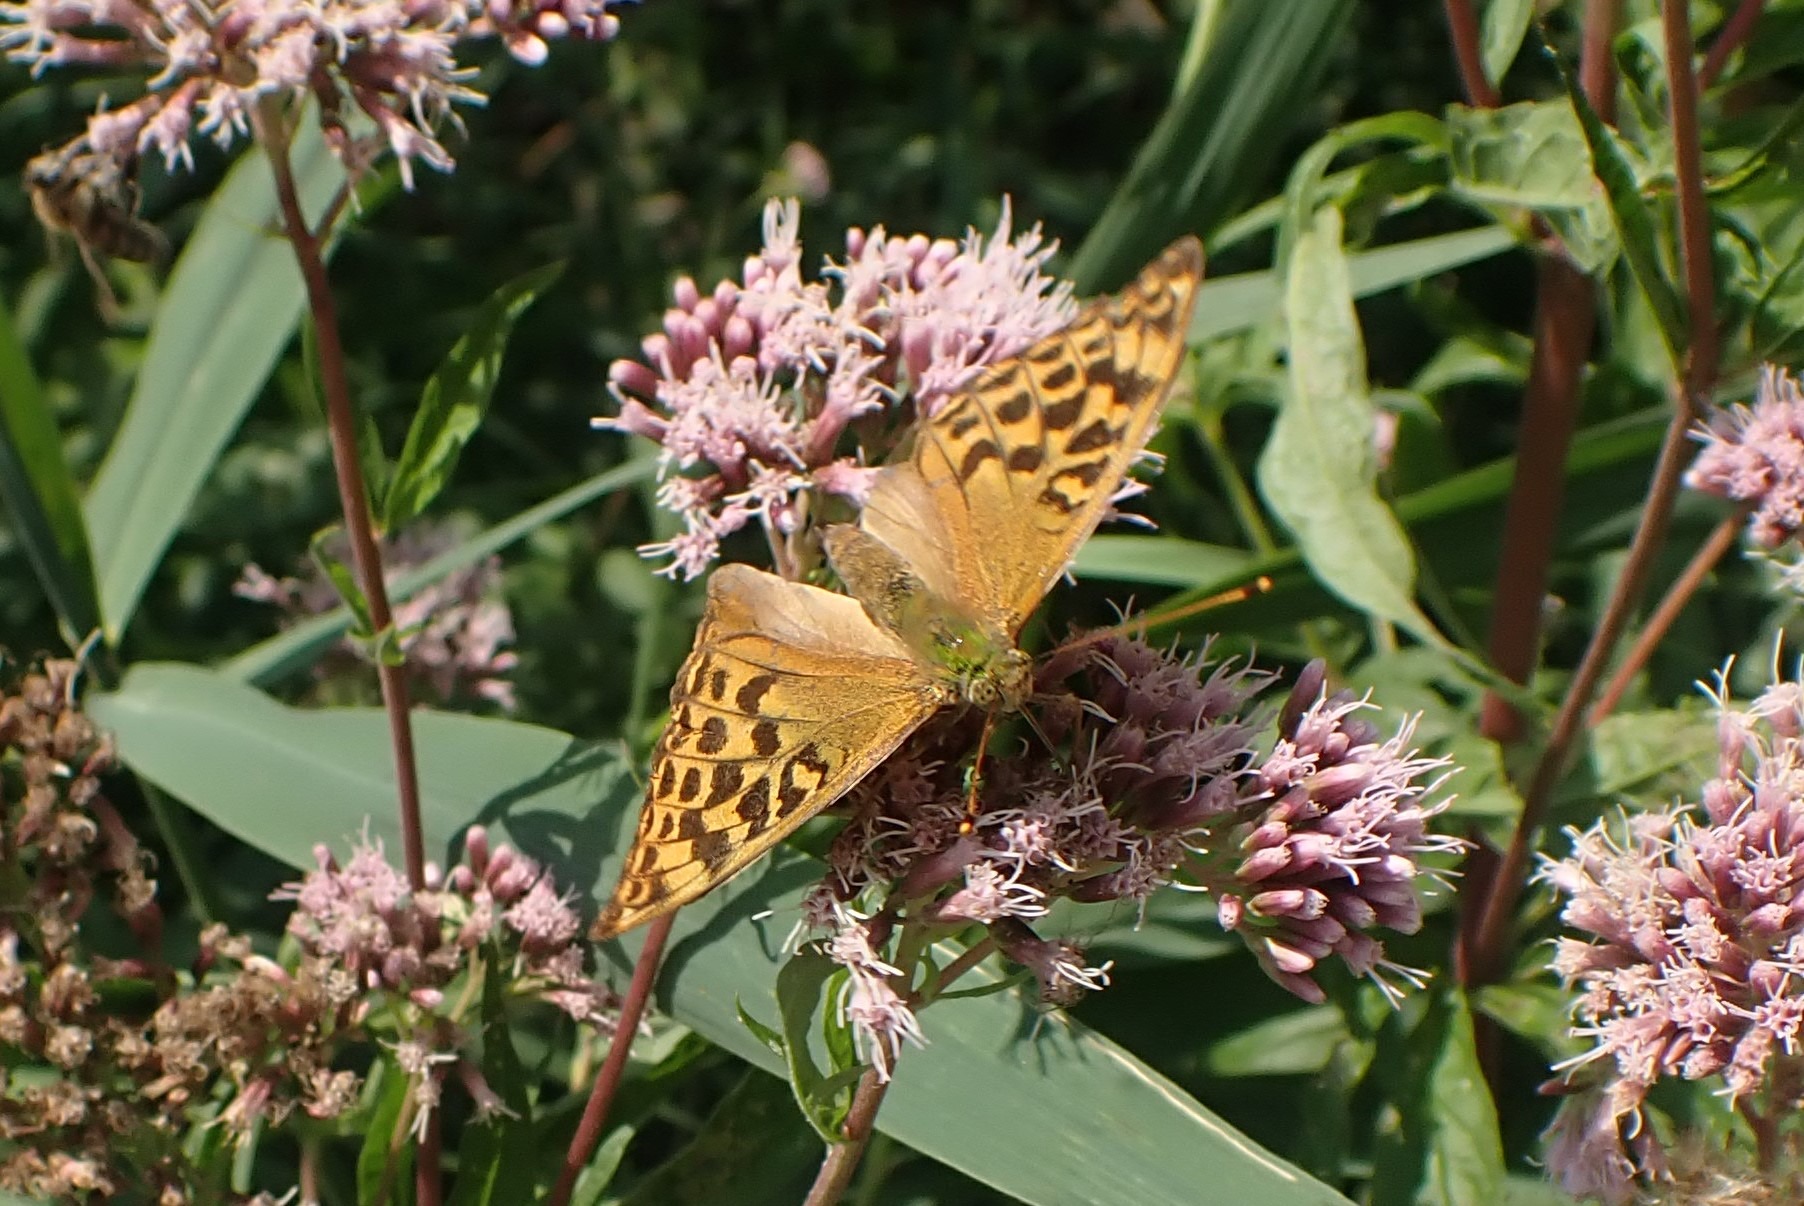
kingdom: Animalia
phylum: Arthropoda
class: Insecta
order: Lepidoptera
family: Nymphalidae
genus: Argynnis
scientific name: Argynnis paphia
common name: Kejserkåbe
